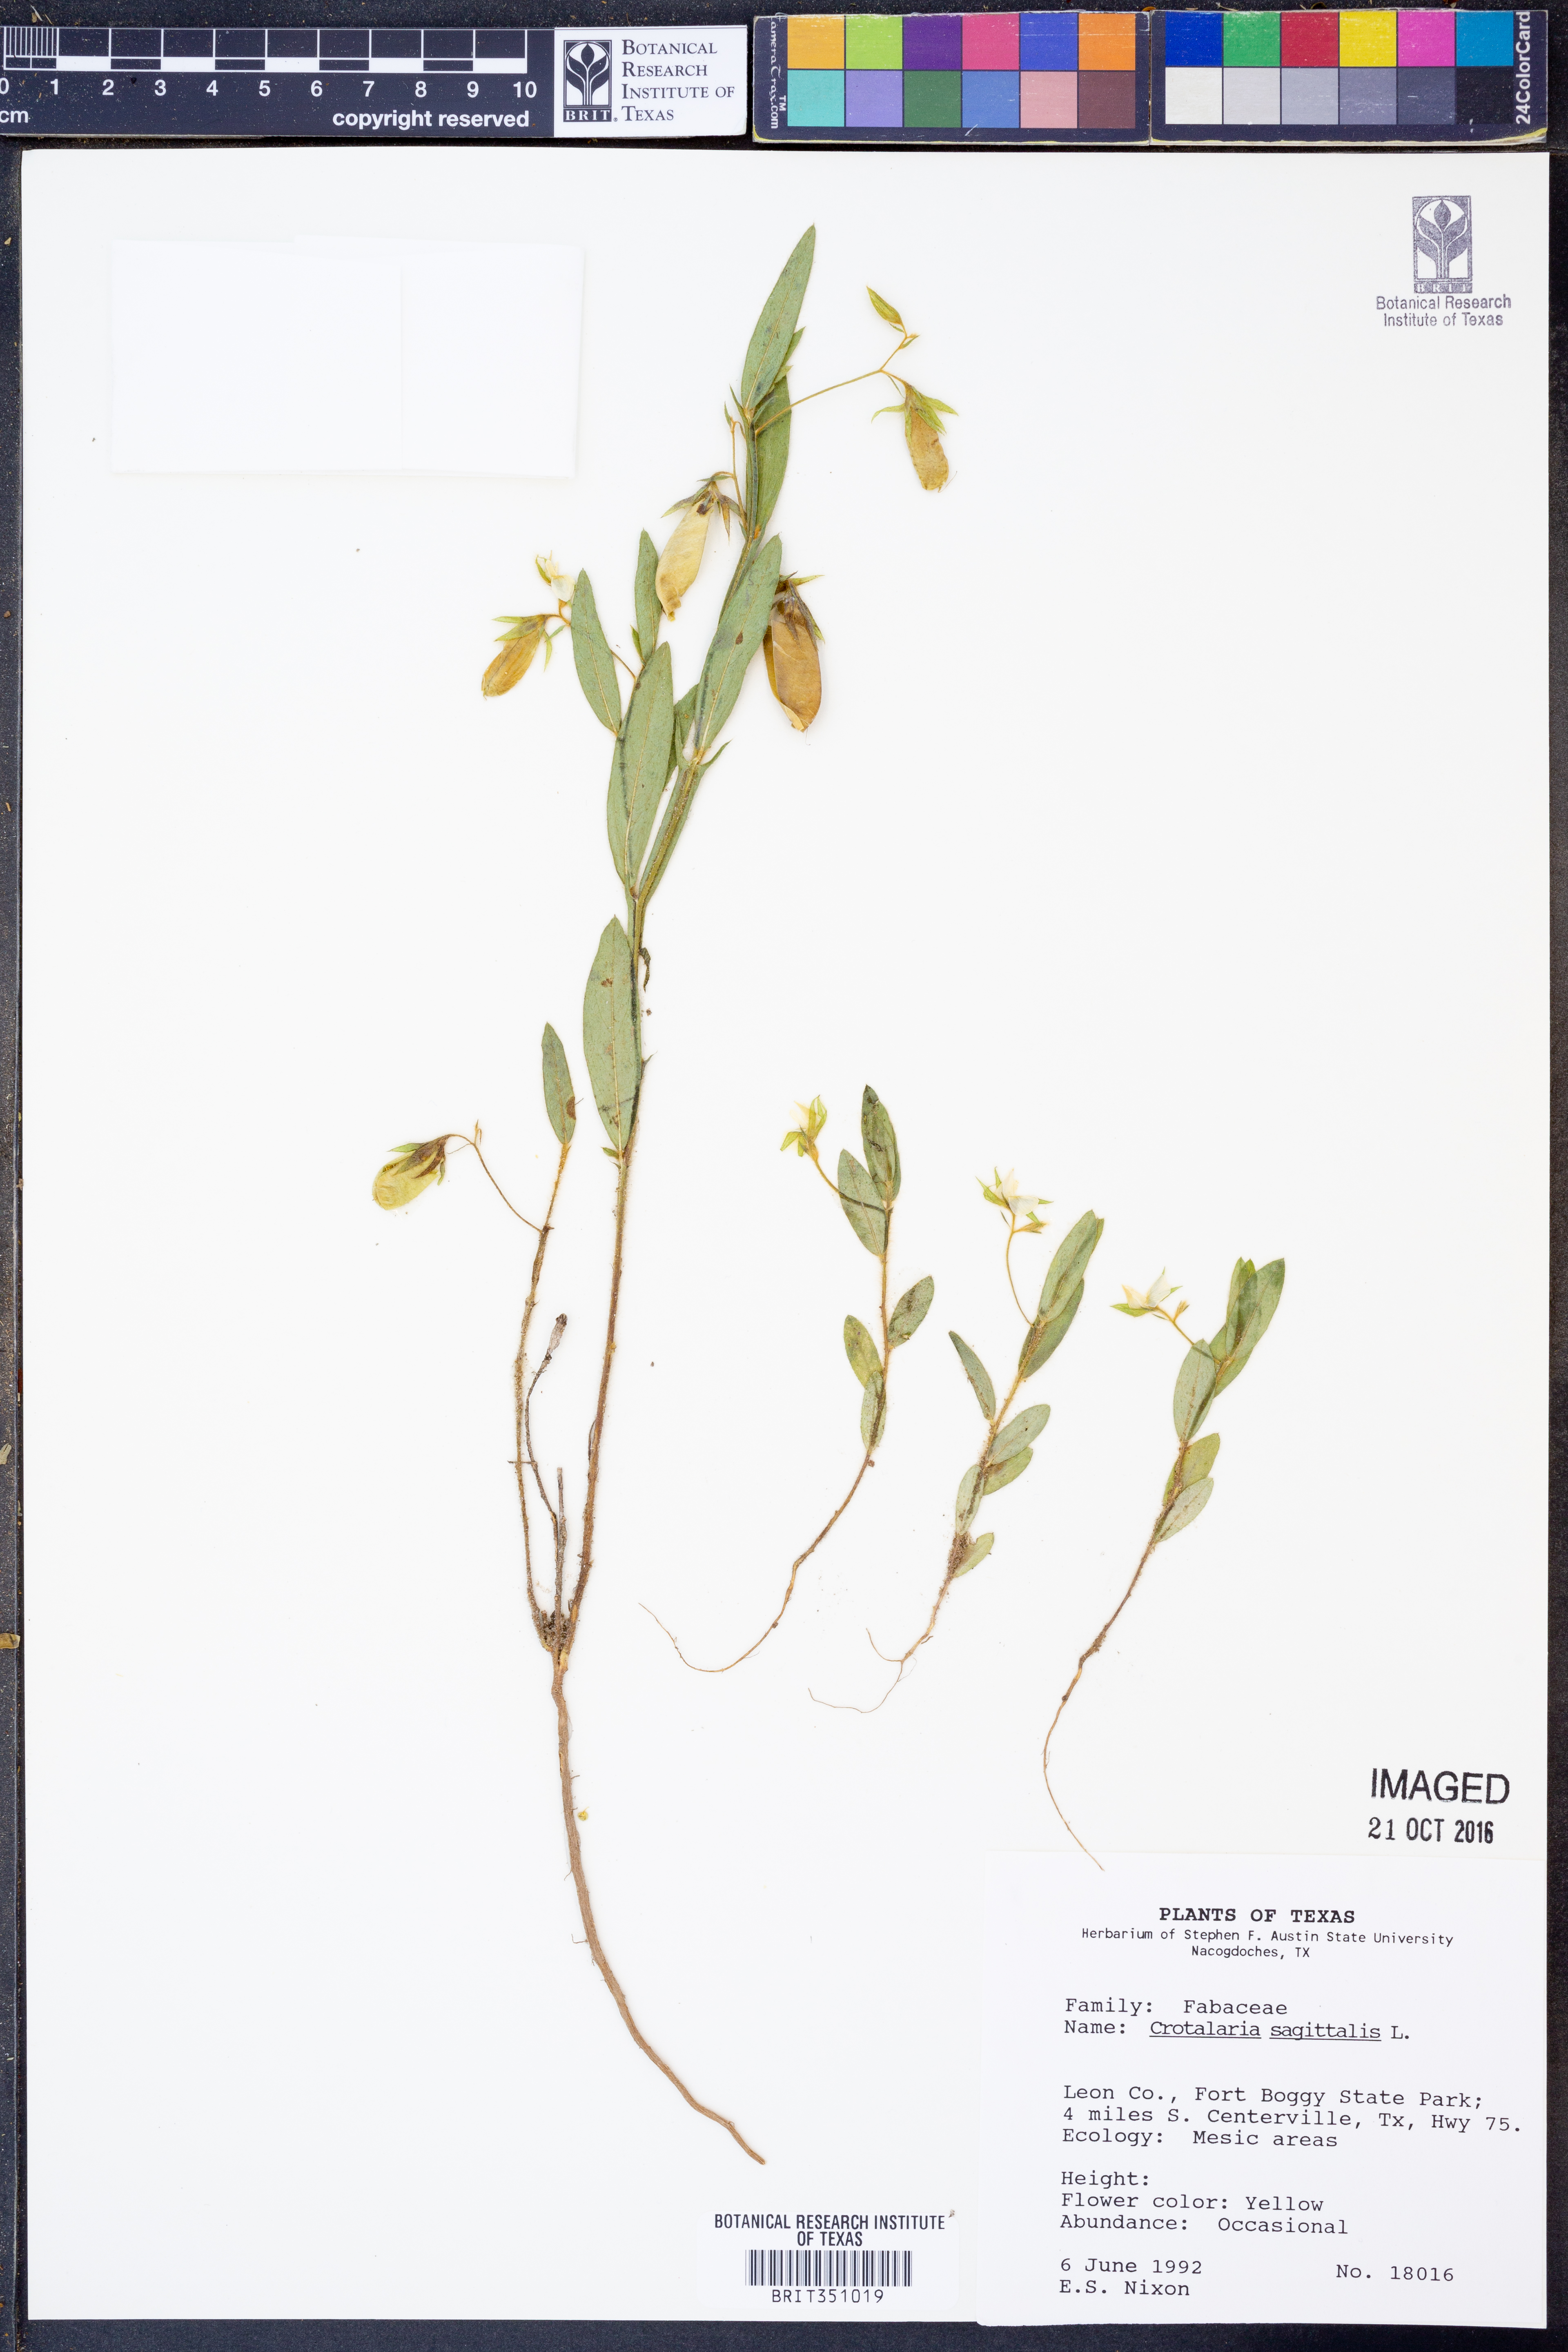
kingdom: Plantae
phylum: Tracheophyta
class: Magnoliopsida
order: Fabales
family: Fabaceae
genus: Crotalaria
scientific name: Crotalaria sagittalis
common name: Arrowhead rattlebox
